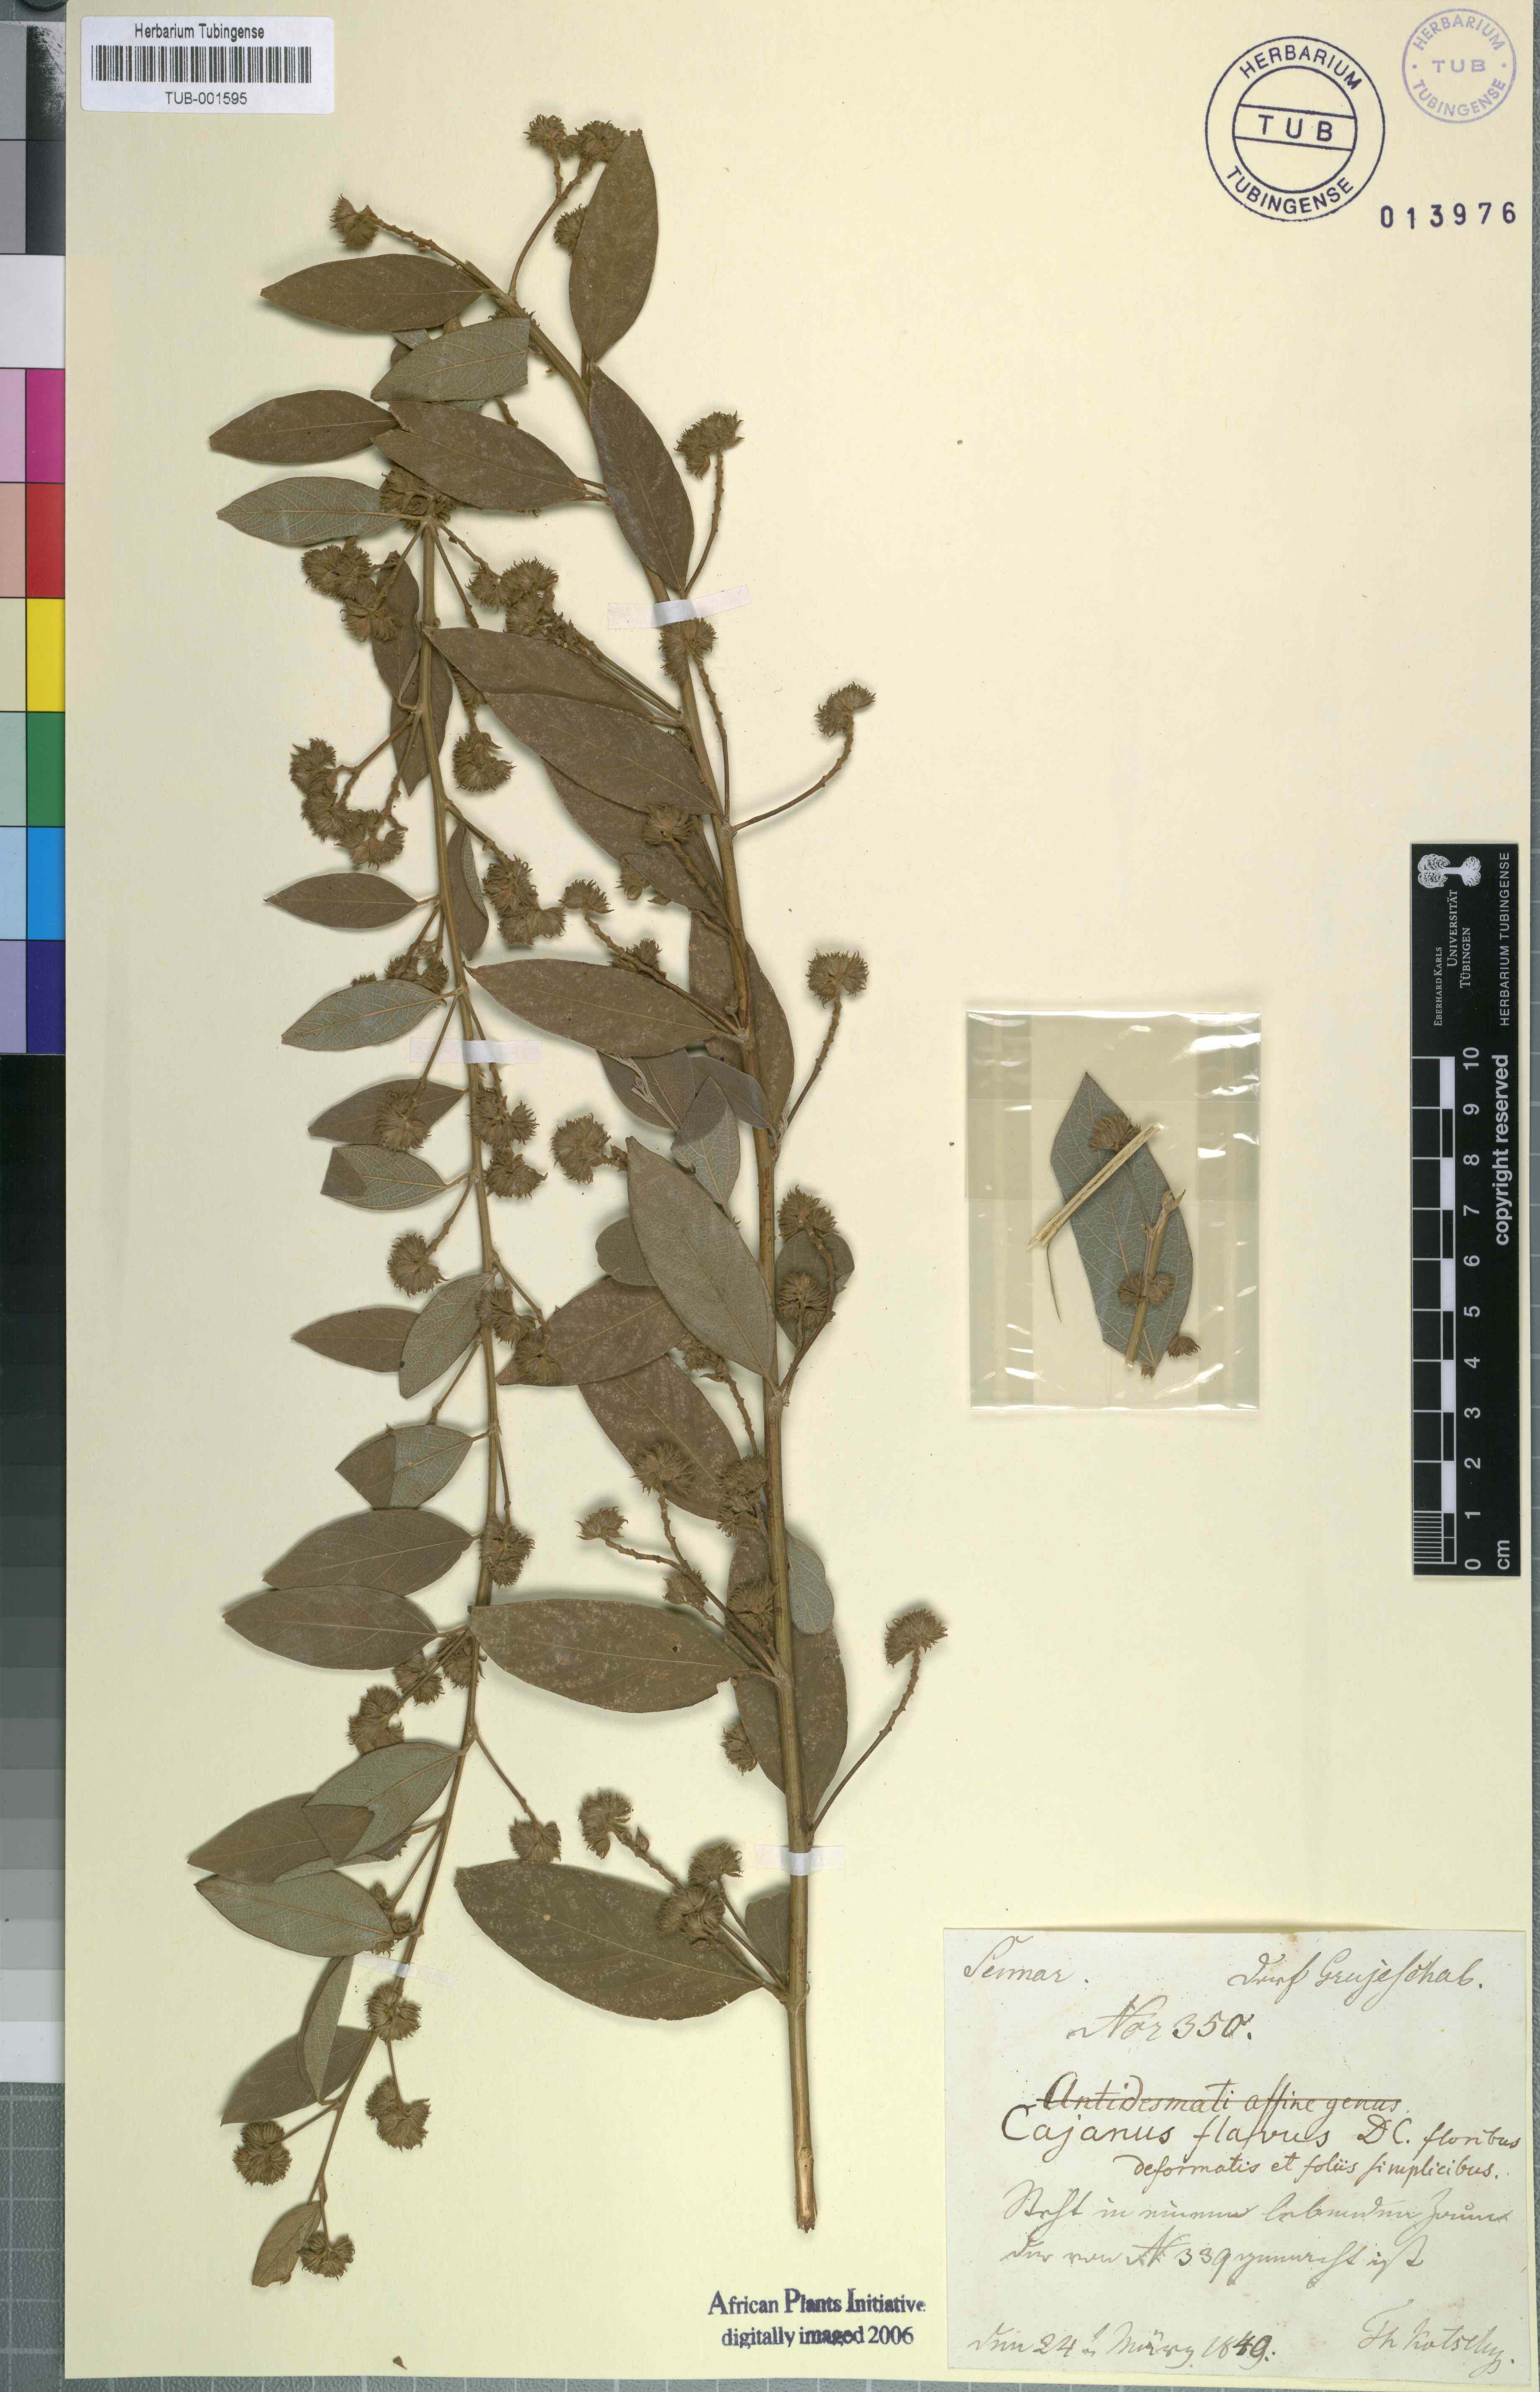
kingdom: Plantae
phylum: Tracheophyta
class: Magnoliopsida
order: Fabales
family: Fabaceae
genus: Cajanus
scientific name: Cajanus cajan
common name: Pigeonpea
